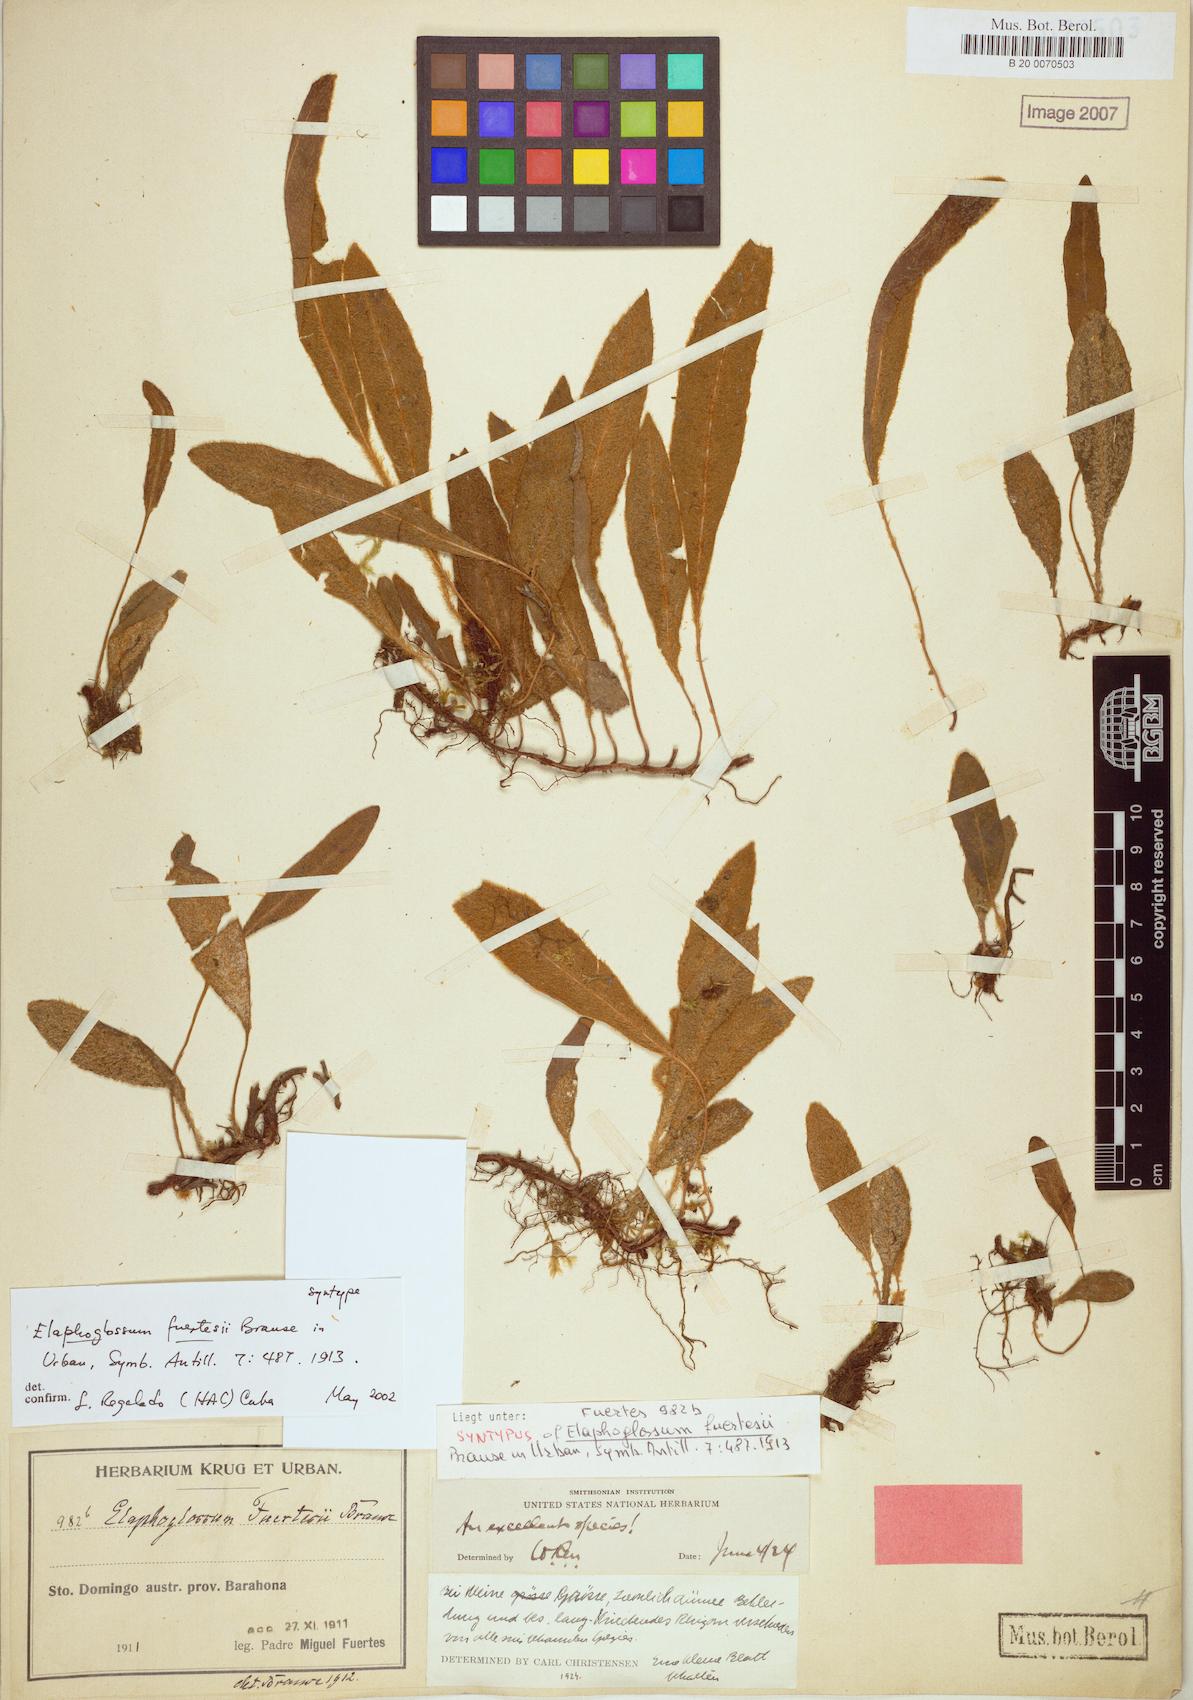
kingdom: Plantae
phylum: Tracheophyta
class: Polypodiopsida
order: Polypodiales
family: Dryopteridaceae
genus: Elaphoglossum
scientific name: Elaphoglossum fuertesii
